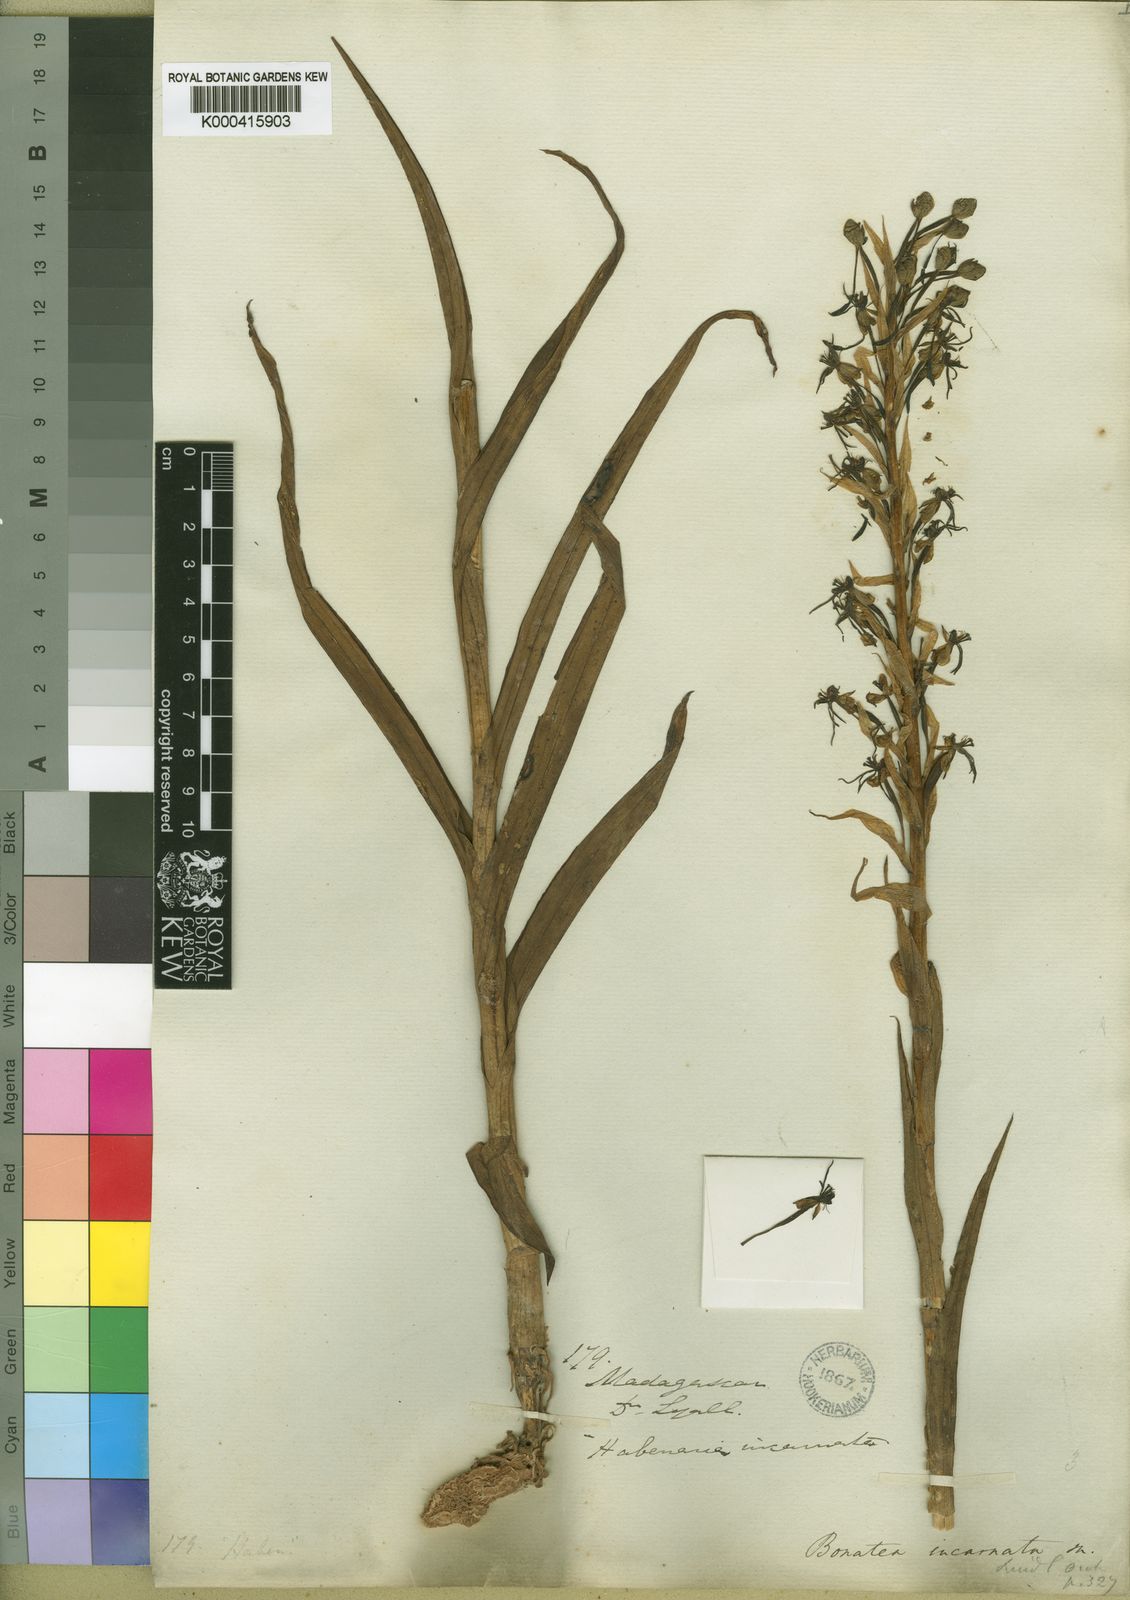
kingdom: Plantae
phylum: Tracheophyta
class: Liliopsida
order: Asparagales
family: Orchidaceae
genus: Habenaria
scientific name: Habenaria incarnata
